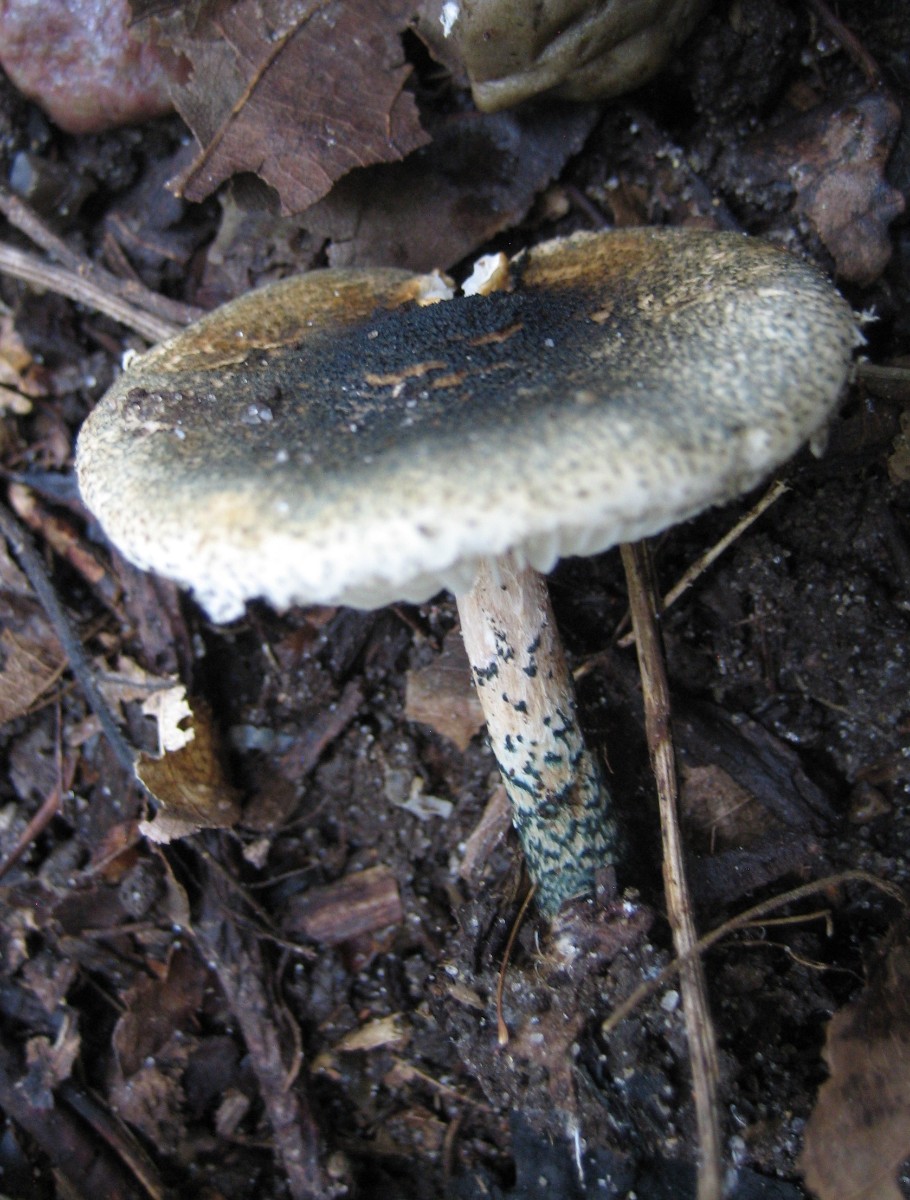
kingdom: Fungi
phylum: Basidiomycota
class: Agaricomycetes
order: Agaricales
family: Agaricaceae
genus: Lepiota
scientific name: Lepiota grangei
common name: grønskællet parasolhat
